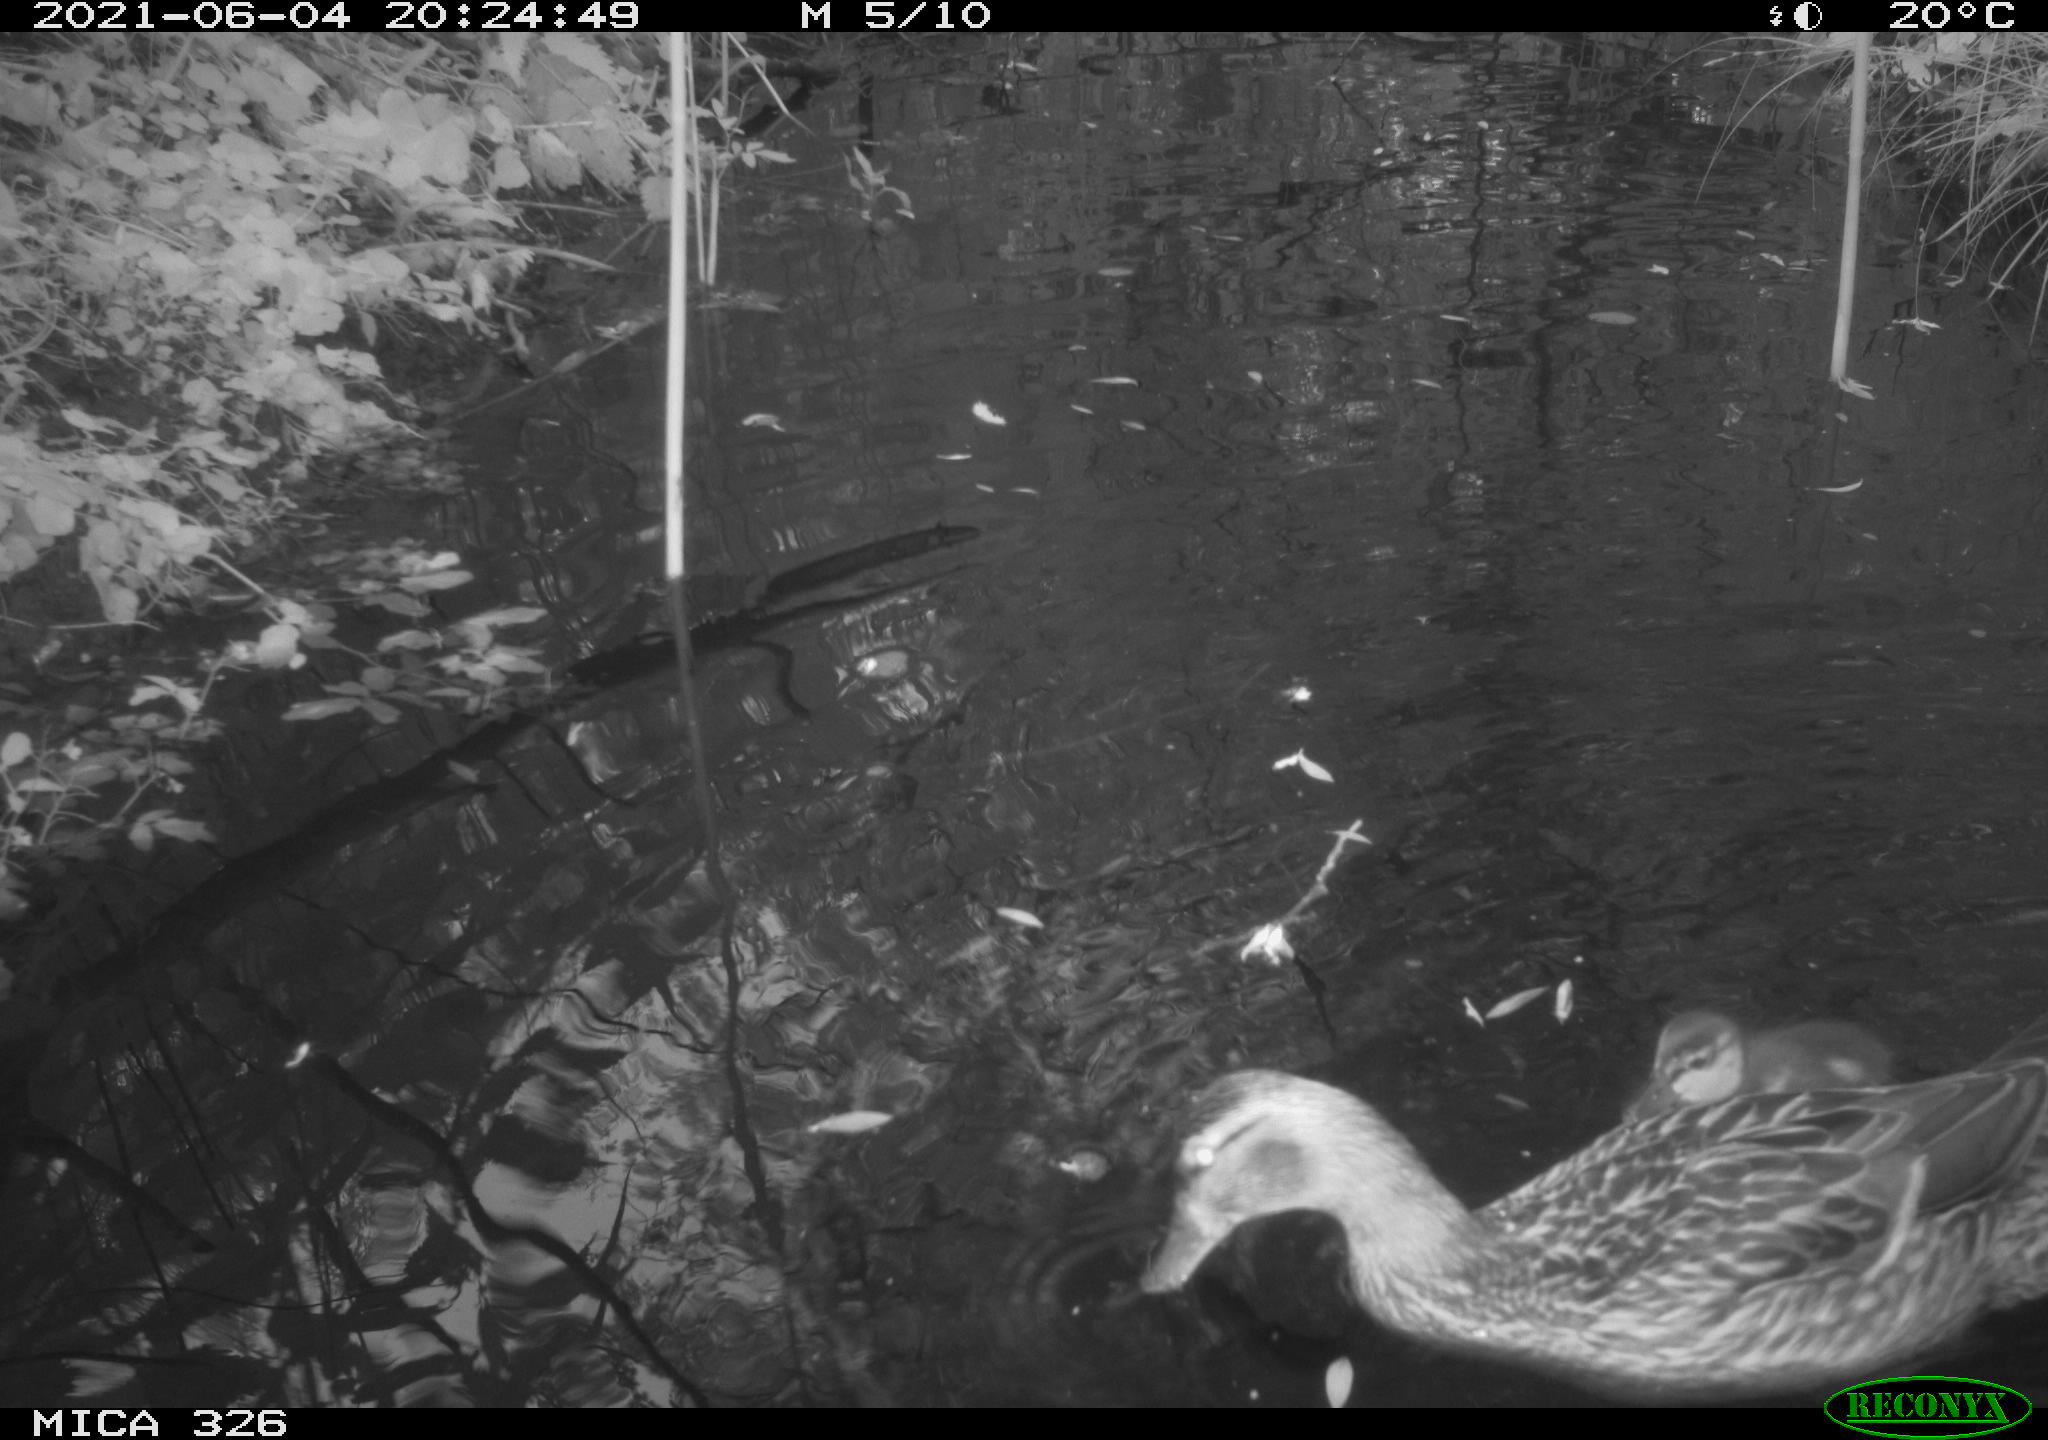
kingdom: Animalia
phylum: Chordata
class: Aves
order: Anseriformes
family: Anatidae
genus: Anas
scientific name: Anas platyrhynchos
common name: Mallard
